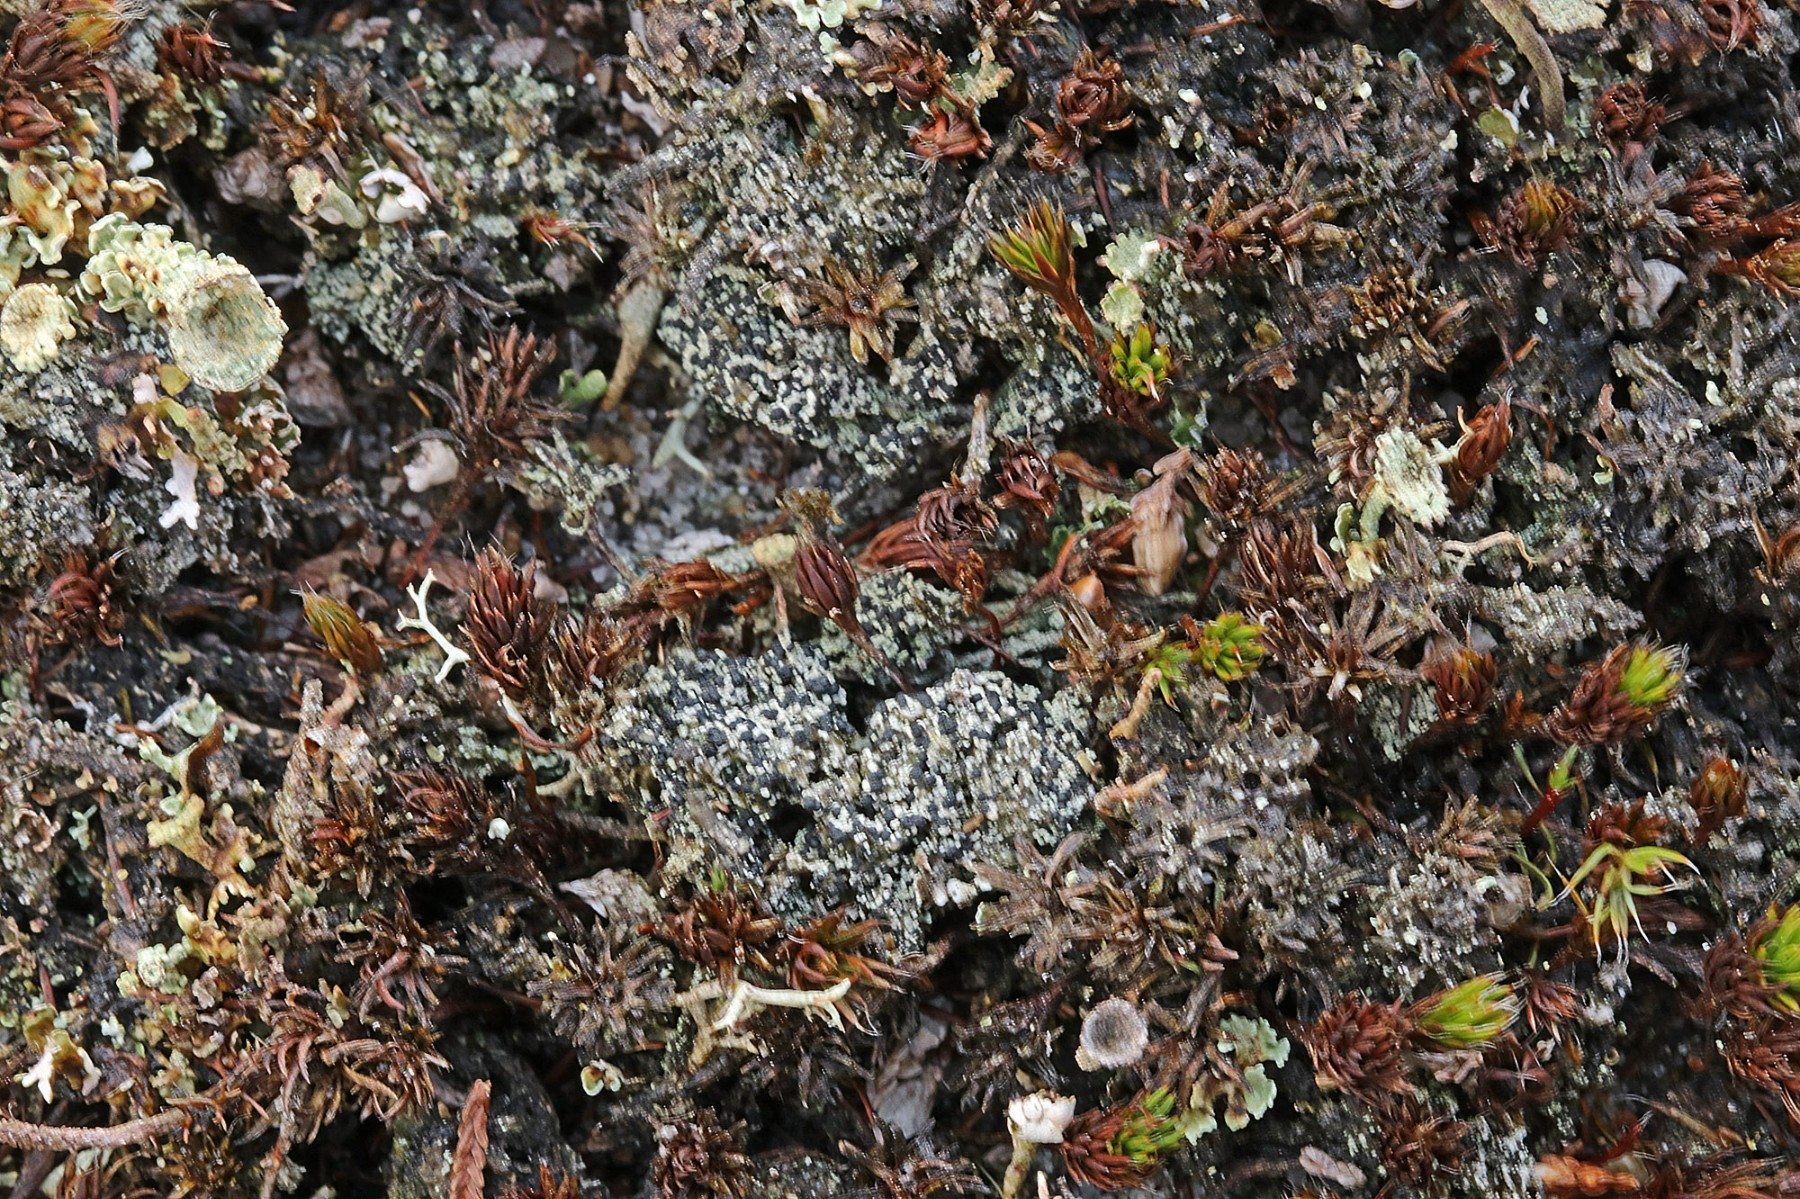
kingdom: Fungi
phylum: Ascomycota
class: Lecanoromycetes
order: Lecanorales
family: Byssolomataceae
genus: Micarea
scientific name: Micarea lignaria
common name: tørve-knaplav
